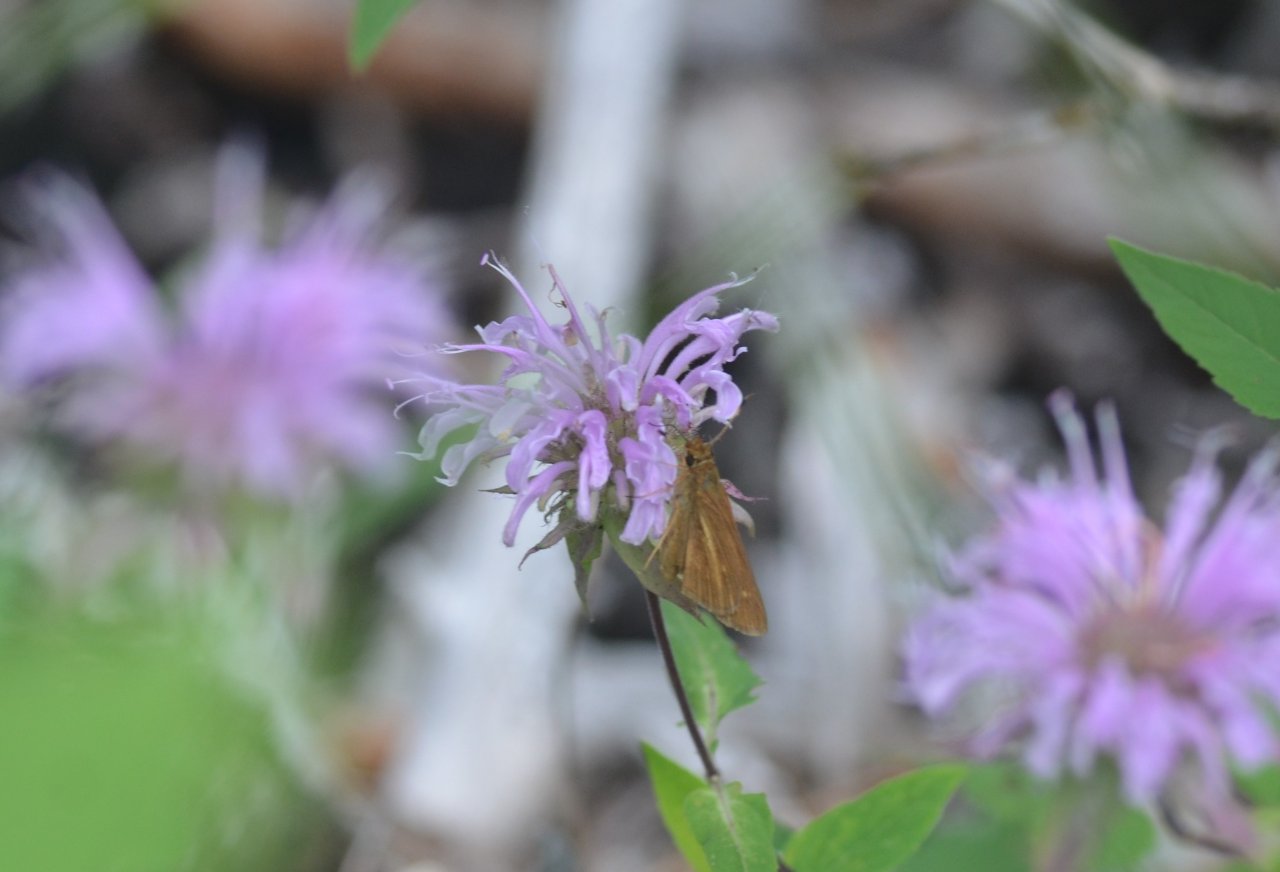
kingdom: Animalia
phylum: Arthropoda
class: Insecta
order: Lepidoptera
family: Hesperiidae
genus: Poanes
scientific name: Poanes viator
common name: Broad-winged Skipper
